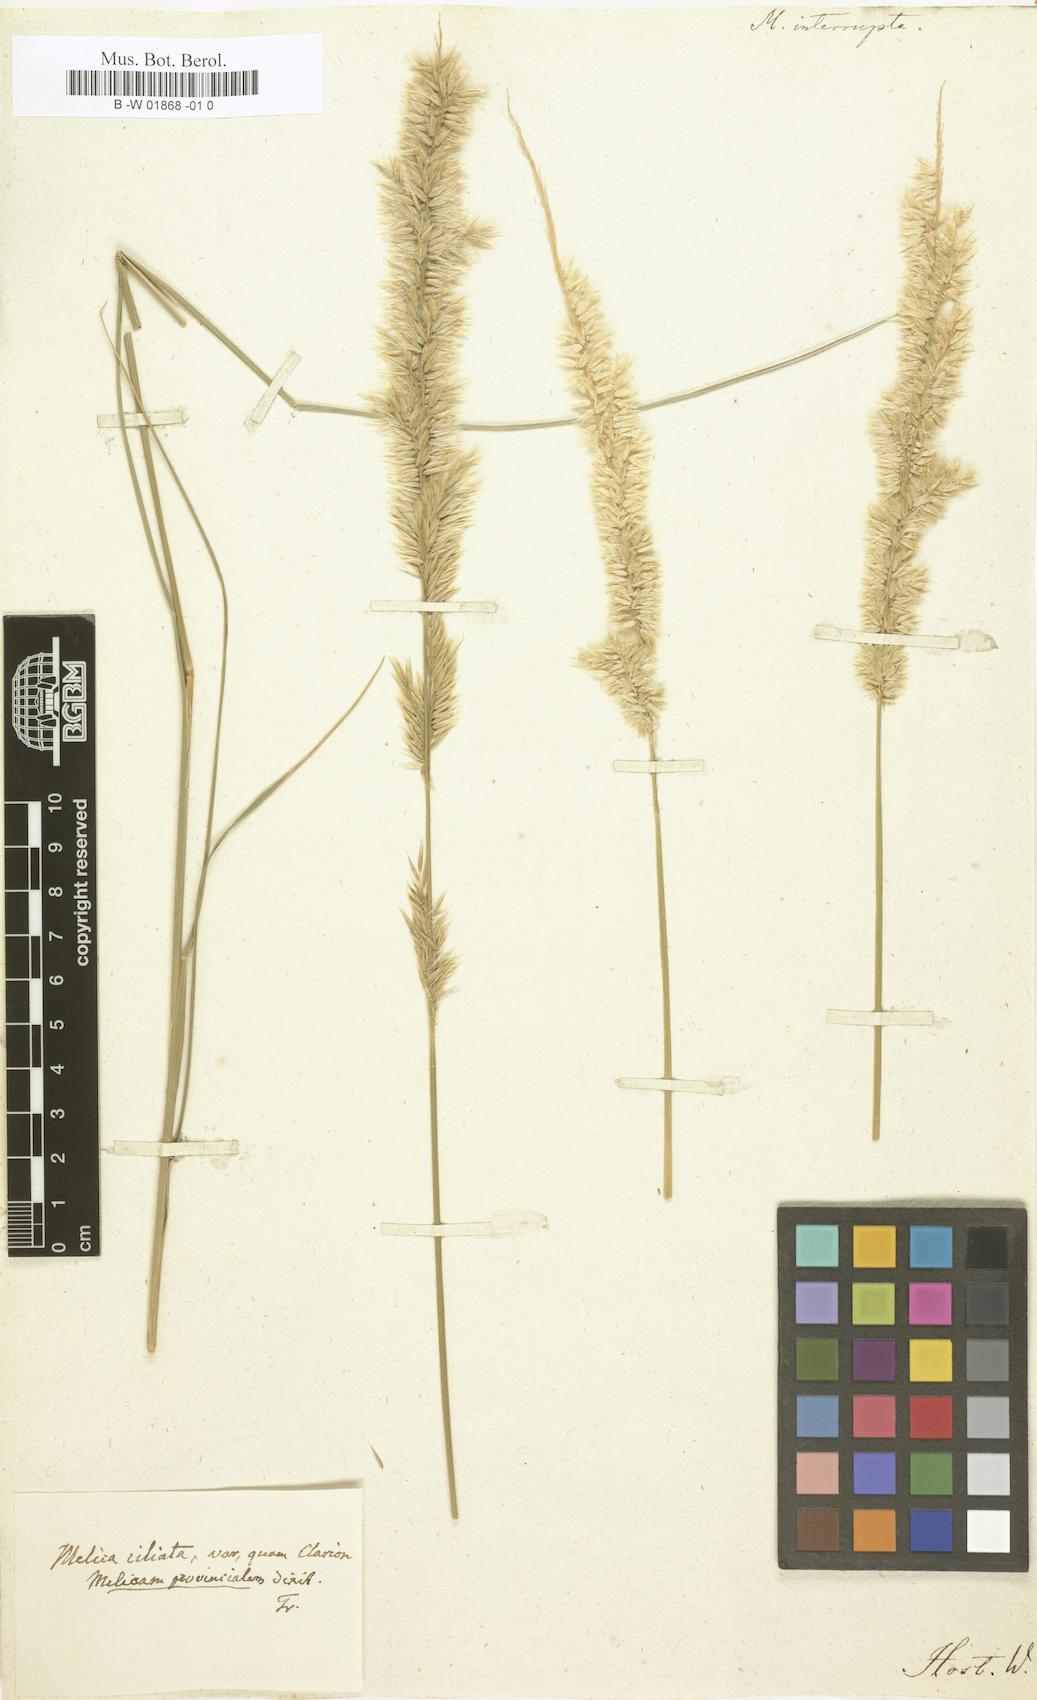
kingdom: Plantae
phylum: Tracheophyta
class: Liliopsida
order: Poales
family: Poaceae
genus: Melica
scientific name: Melica interrupta
